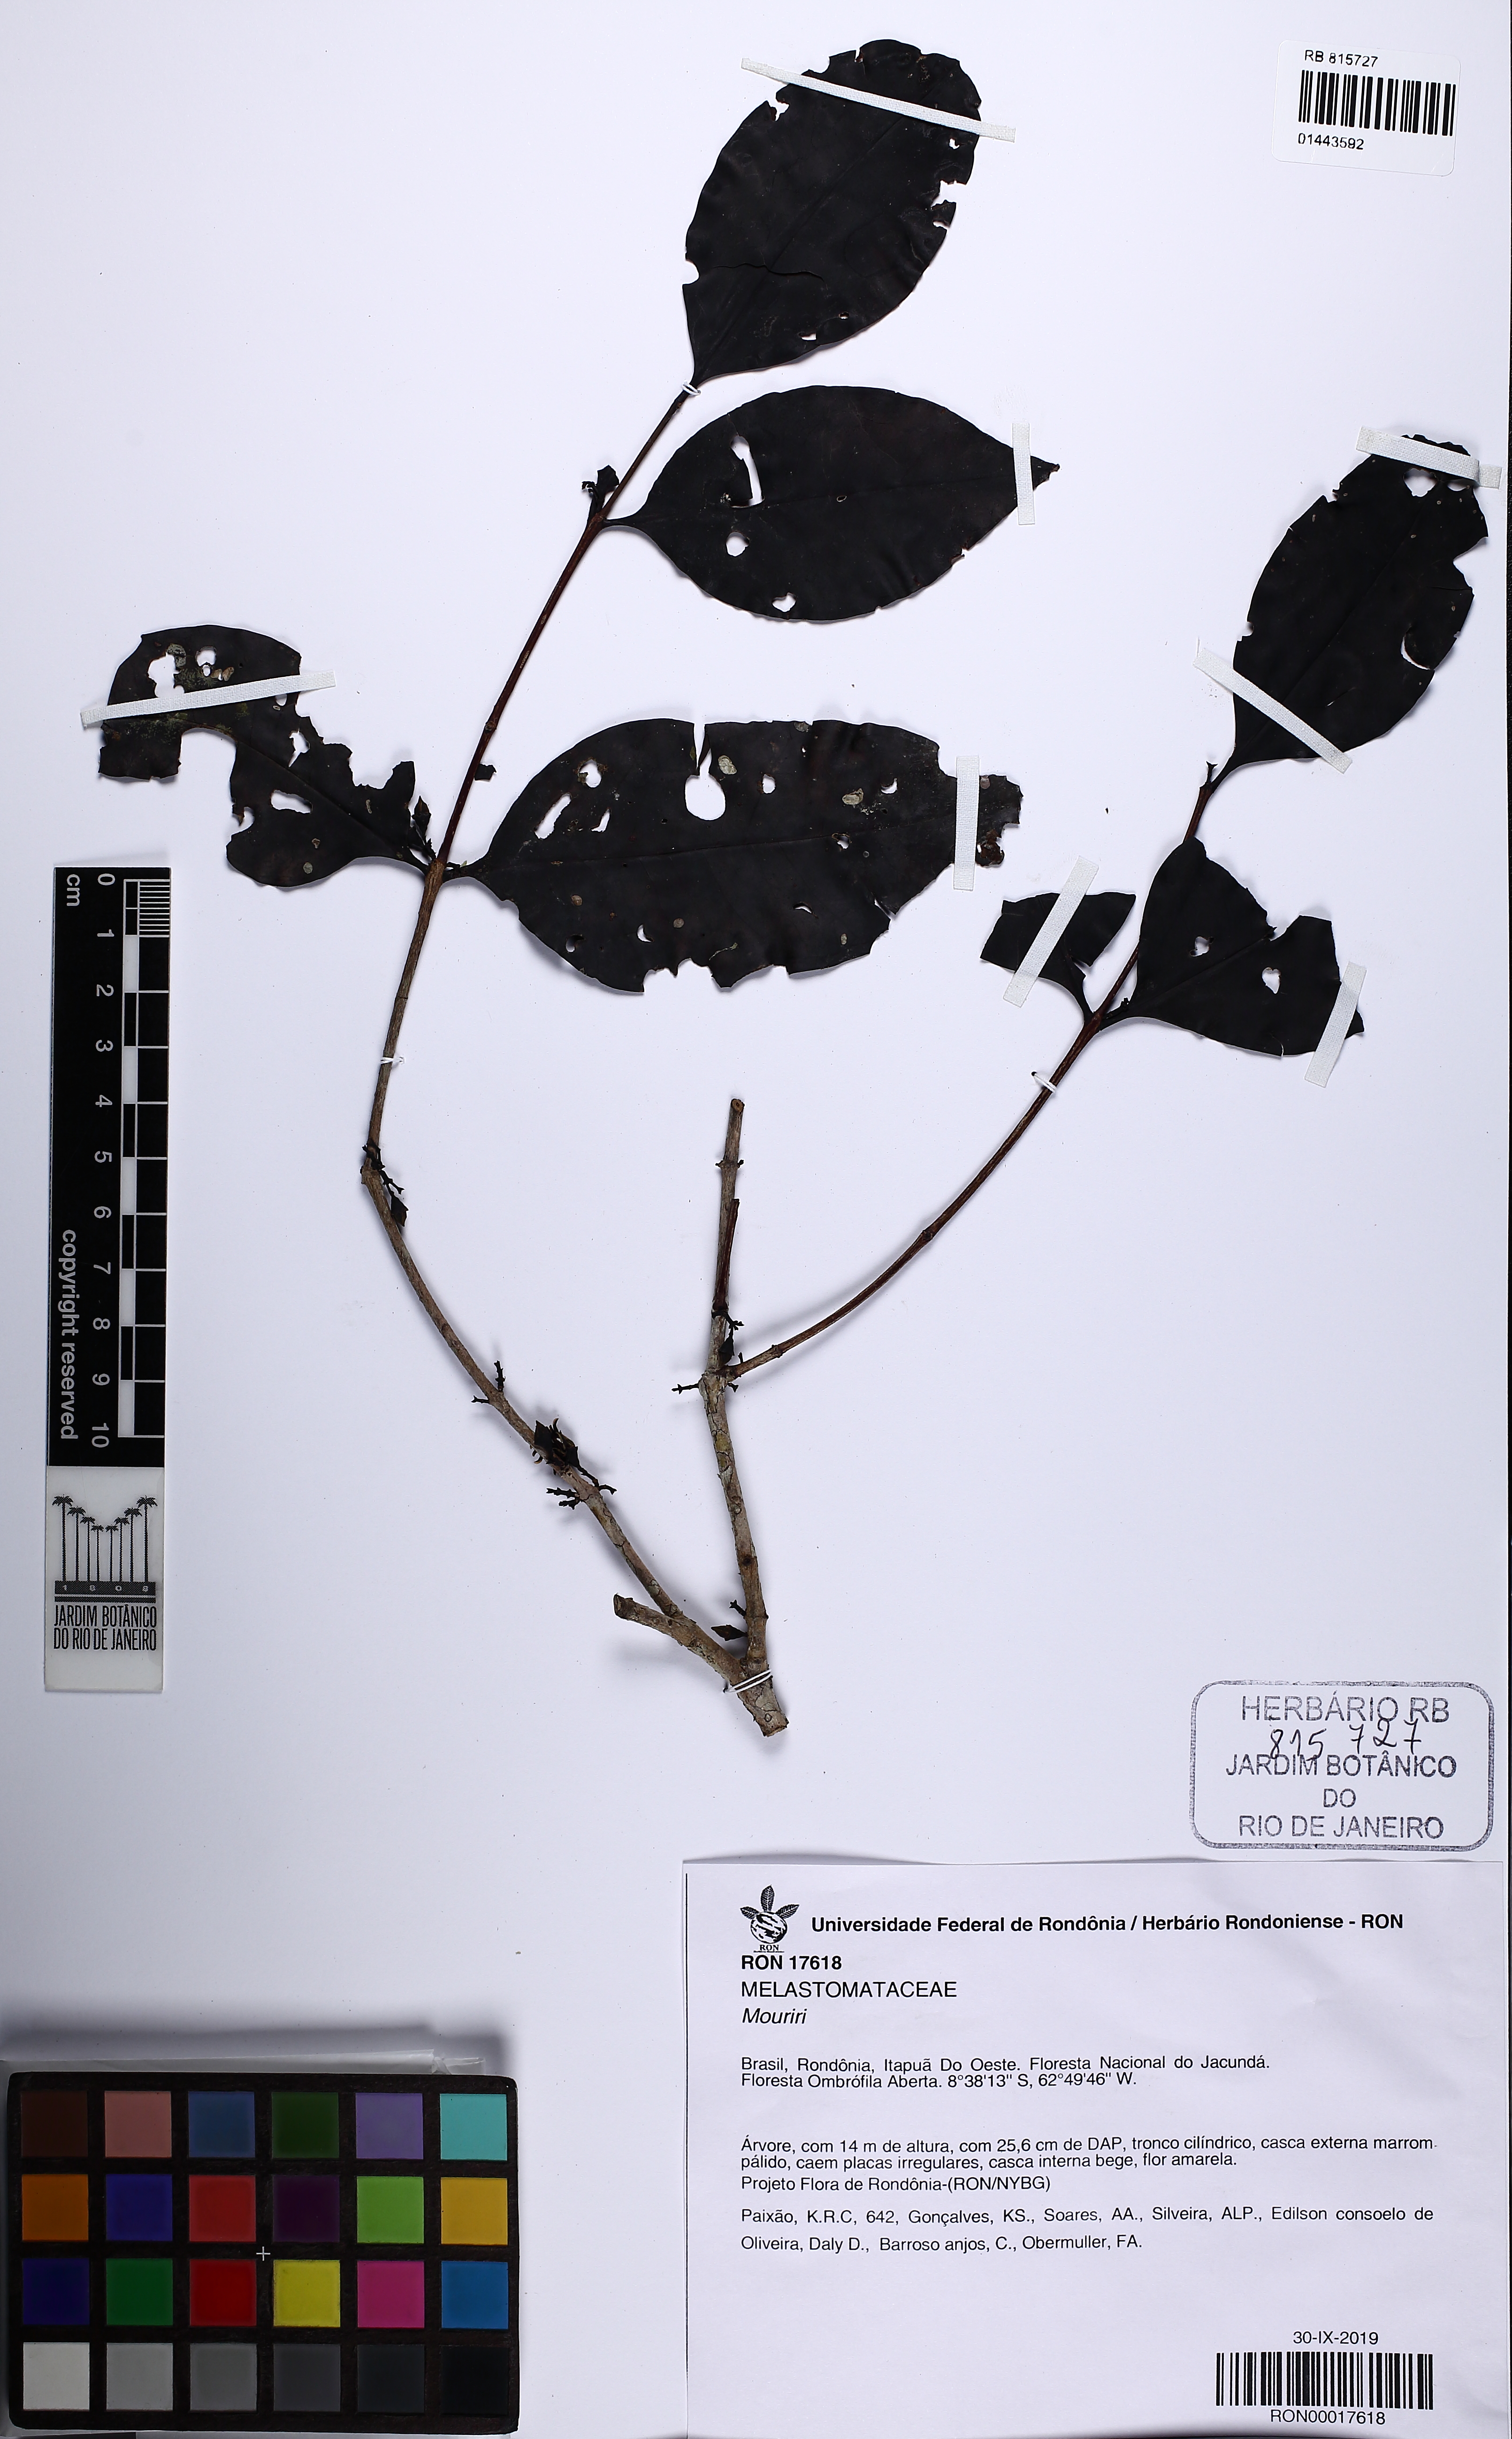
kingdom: Plantae
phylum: Tracheophyta
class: Magnoliopsida
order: Myrtales
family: Melastomataceae
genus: Mouriri
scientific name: Mouriri vernicosa
